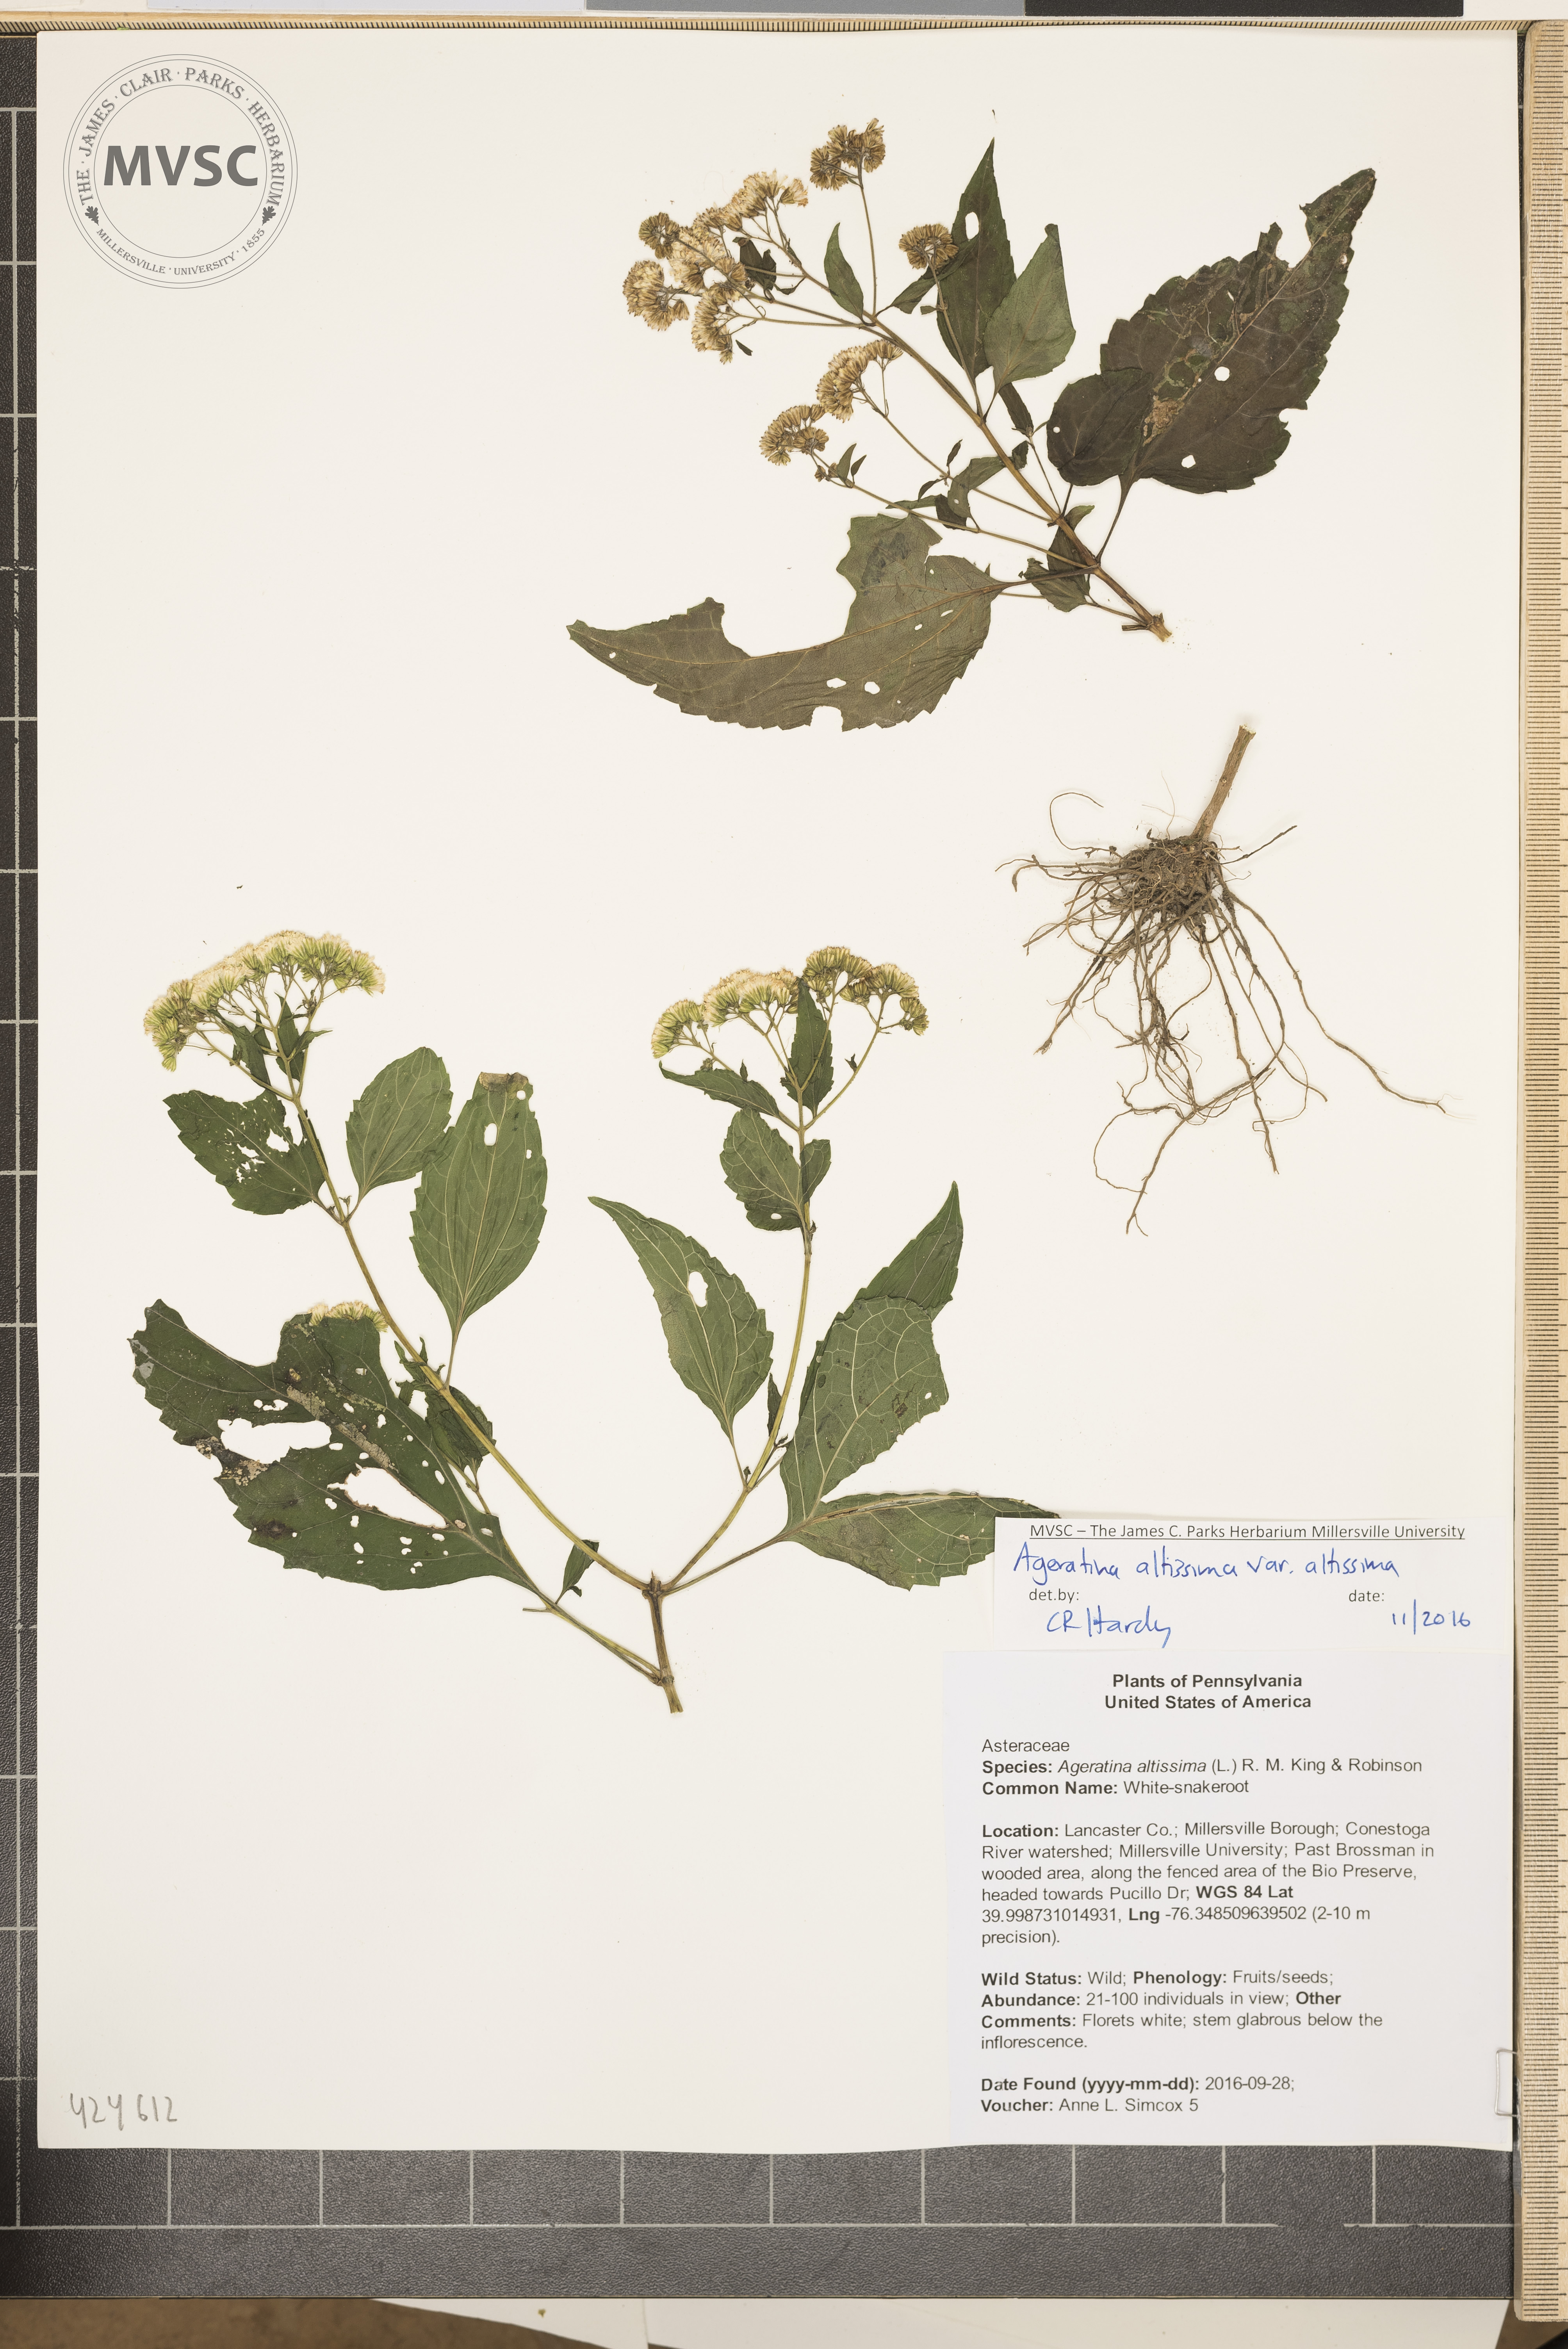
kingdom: Plantae
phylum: Tracheophyta
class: Magnoliopsida
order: Asterales
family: Asteraceae
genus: Ageratina
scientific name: Ageratina altissima
